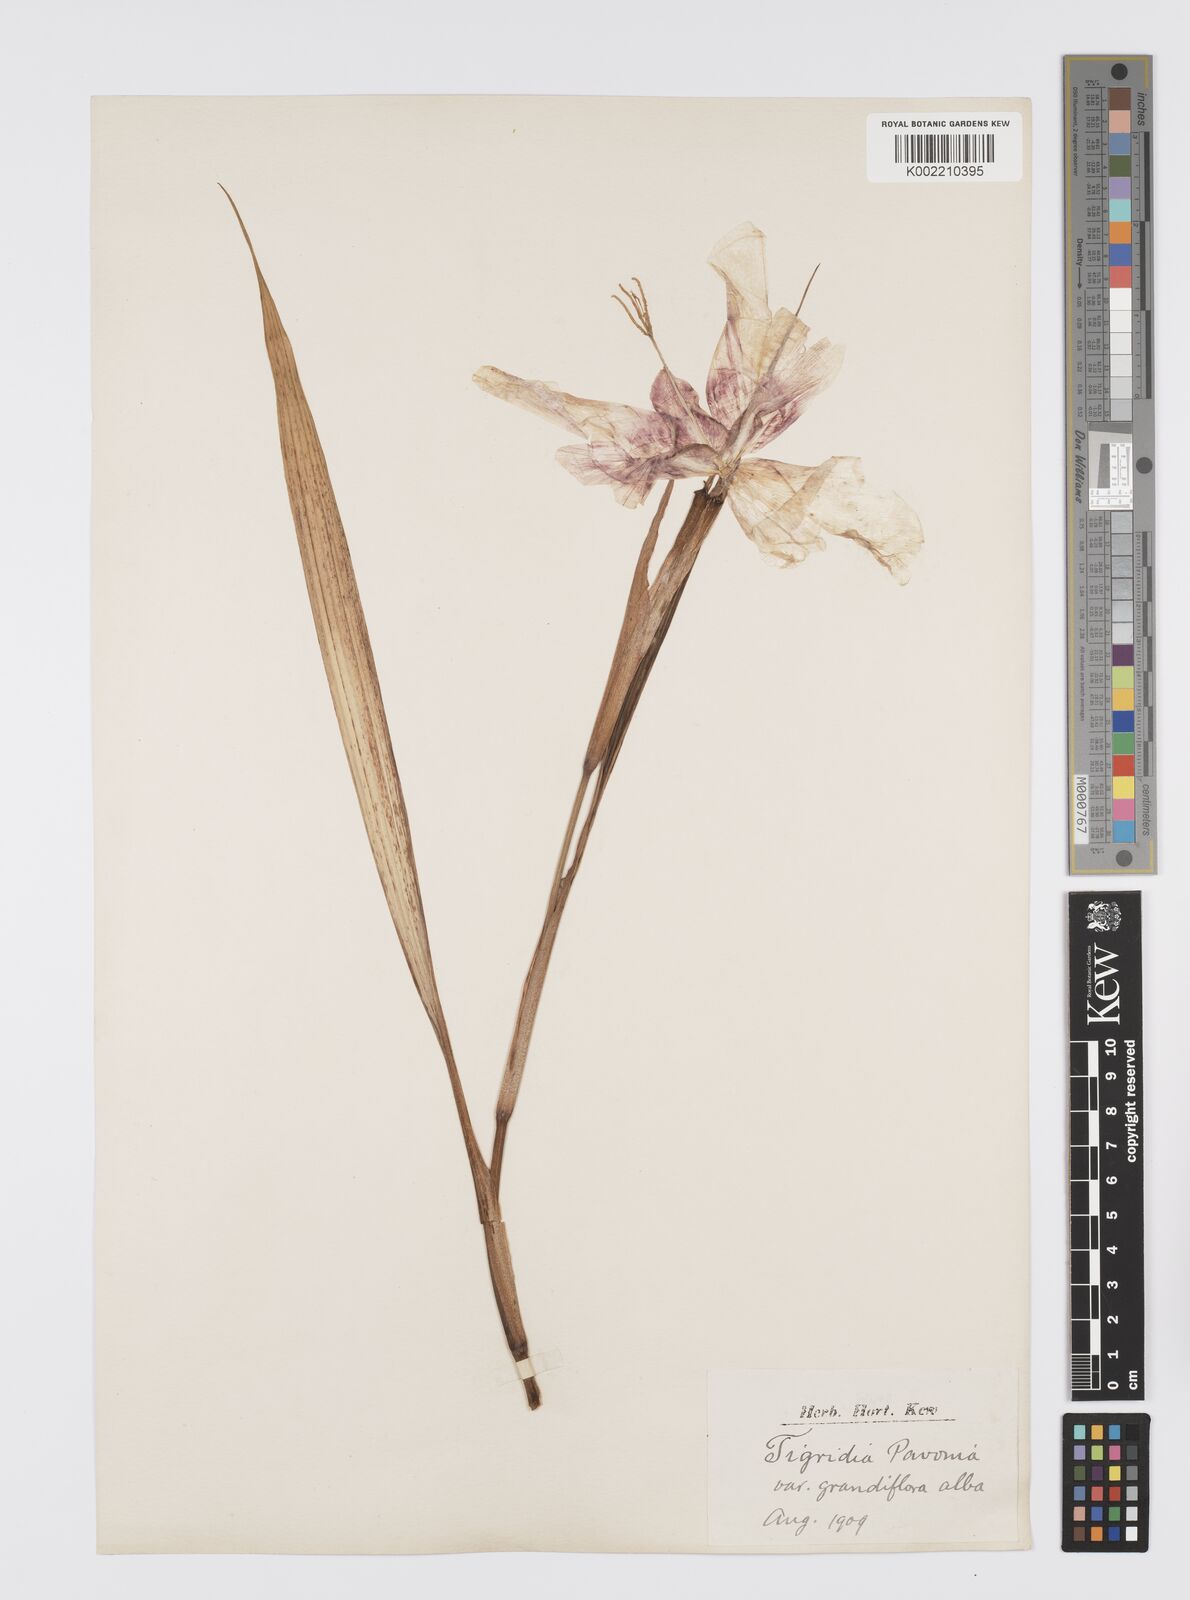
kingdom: Plantae
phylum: Tracheophyta
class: Liliopsida
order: Asparagales
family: Iridaceae
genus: Tigridia
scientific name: Tigridia pavonia
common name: Peacock-flower
